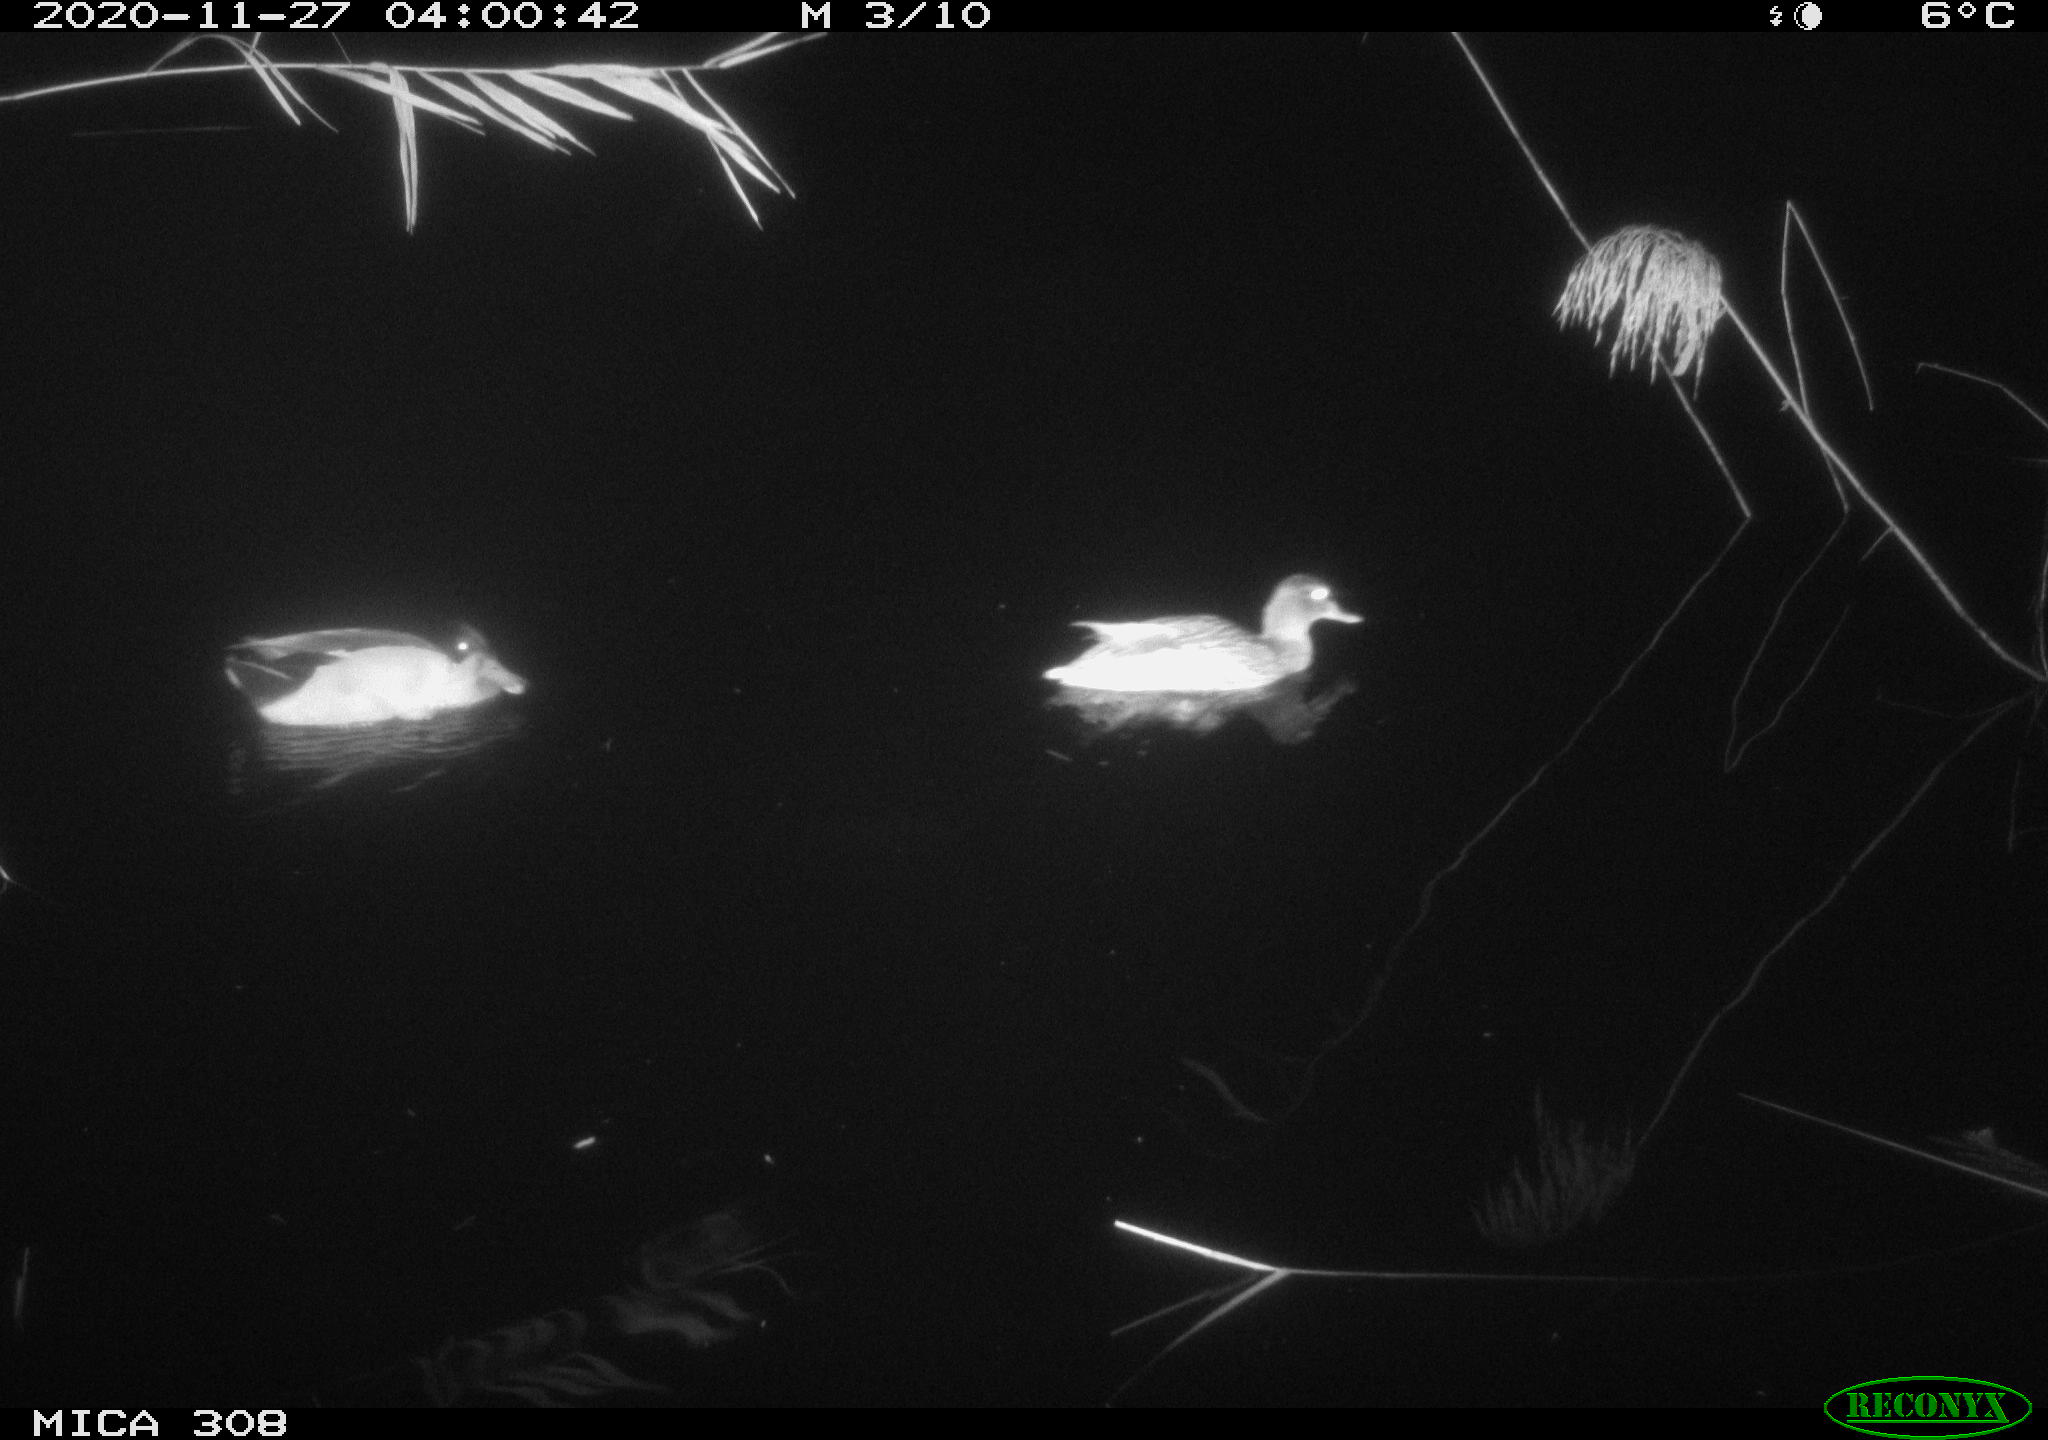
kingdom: Animalia
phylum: Chordata
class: Aves
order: Anseriformes
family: Anatidae
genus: Anas
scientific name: Anas platyrhynchos
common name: Mallard
